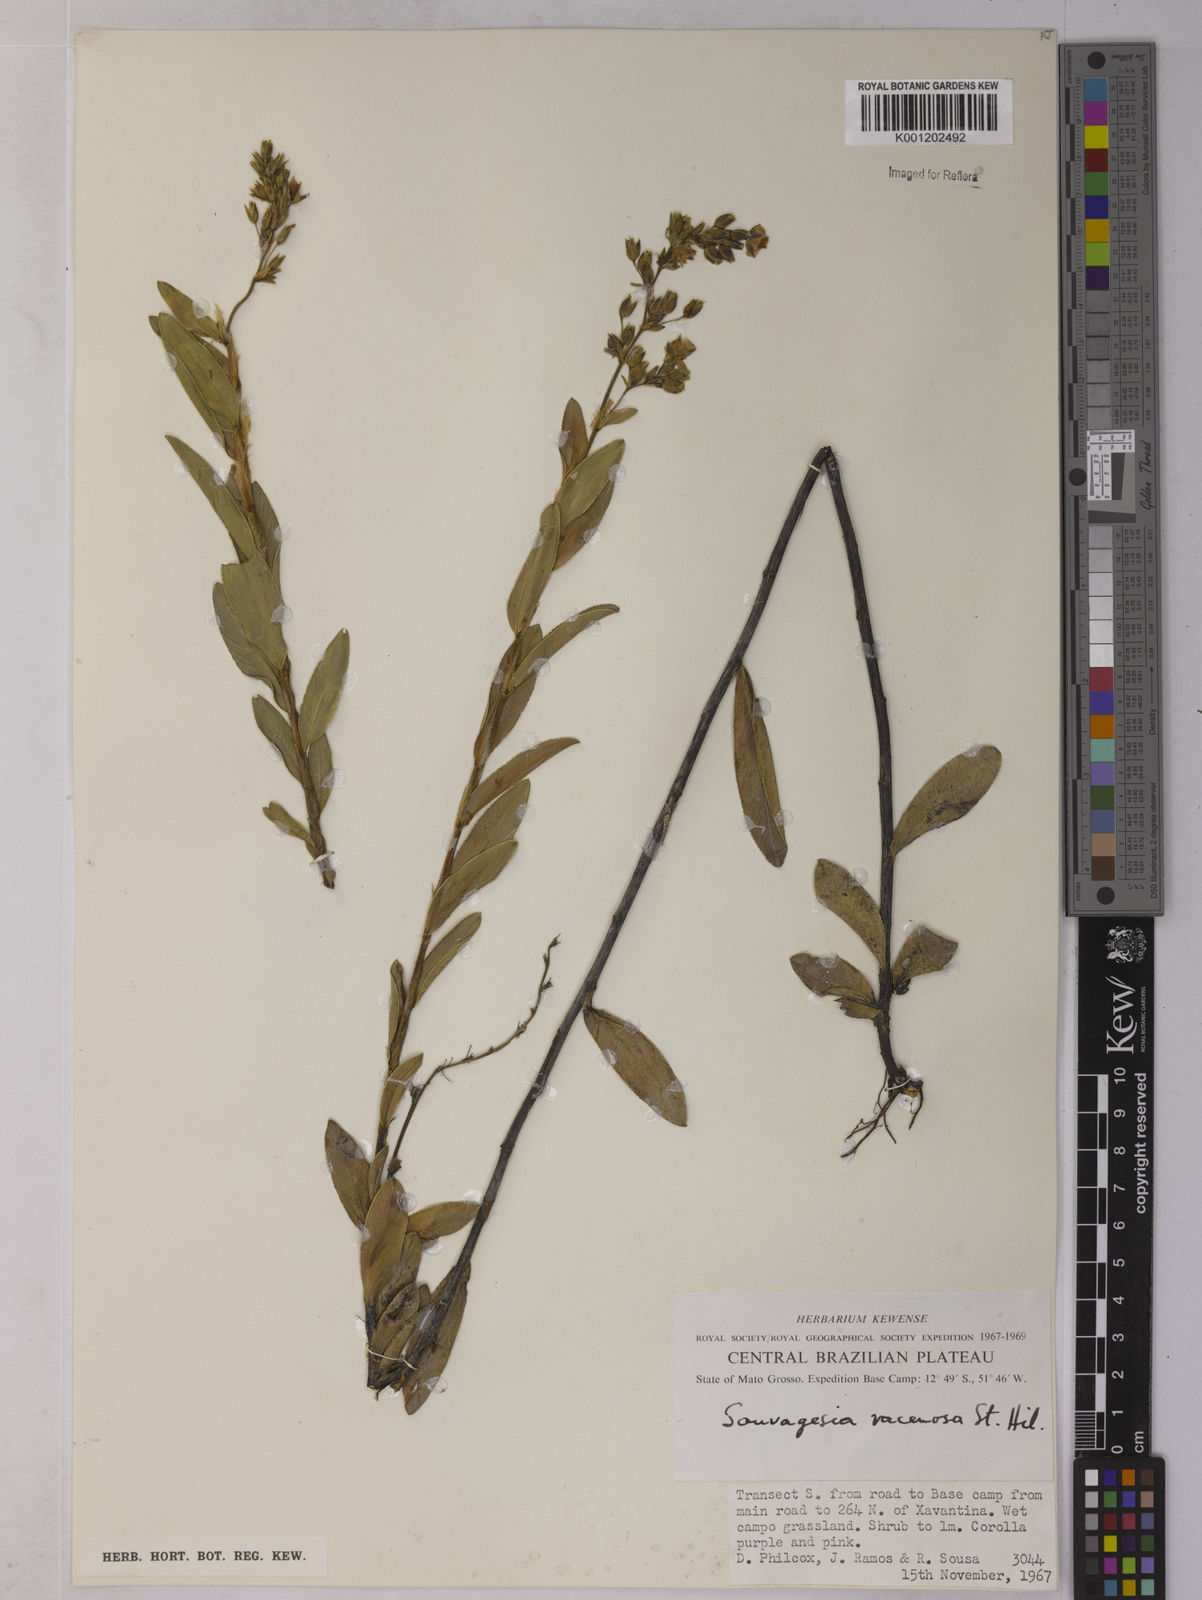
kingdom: Plantae
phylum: Tracheophyta
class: Magnoliopsida
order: Malpighiales
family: Ochnaceae
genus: Sauvagesia
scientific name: Sauvagesia racemosa
